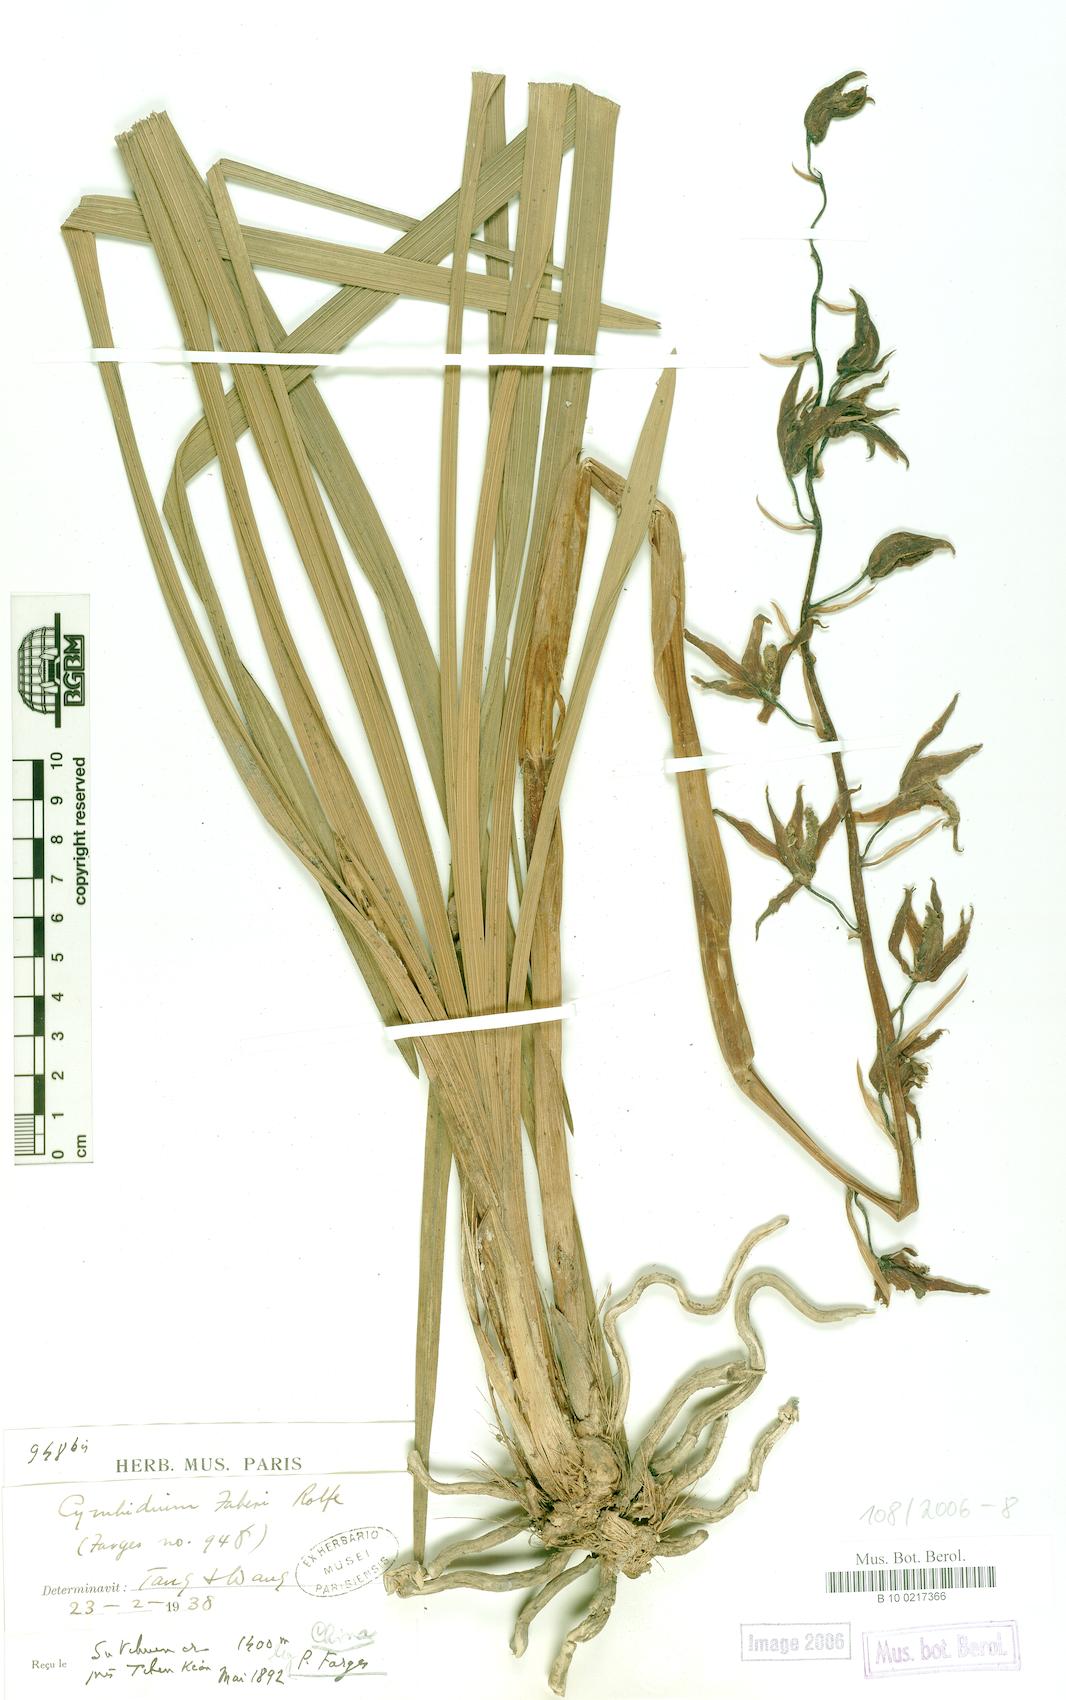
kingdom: Plantae
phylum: Tracheophyta
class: Liliopsida
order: Asparagales
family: Orchidaceae
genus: Cymbidium
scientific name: Cymbidium faberi
